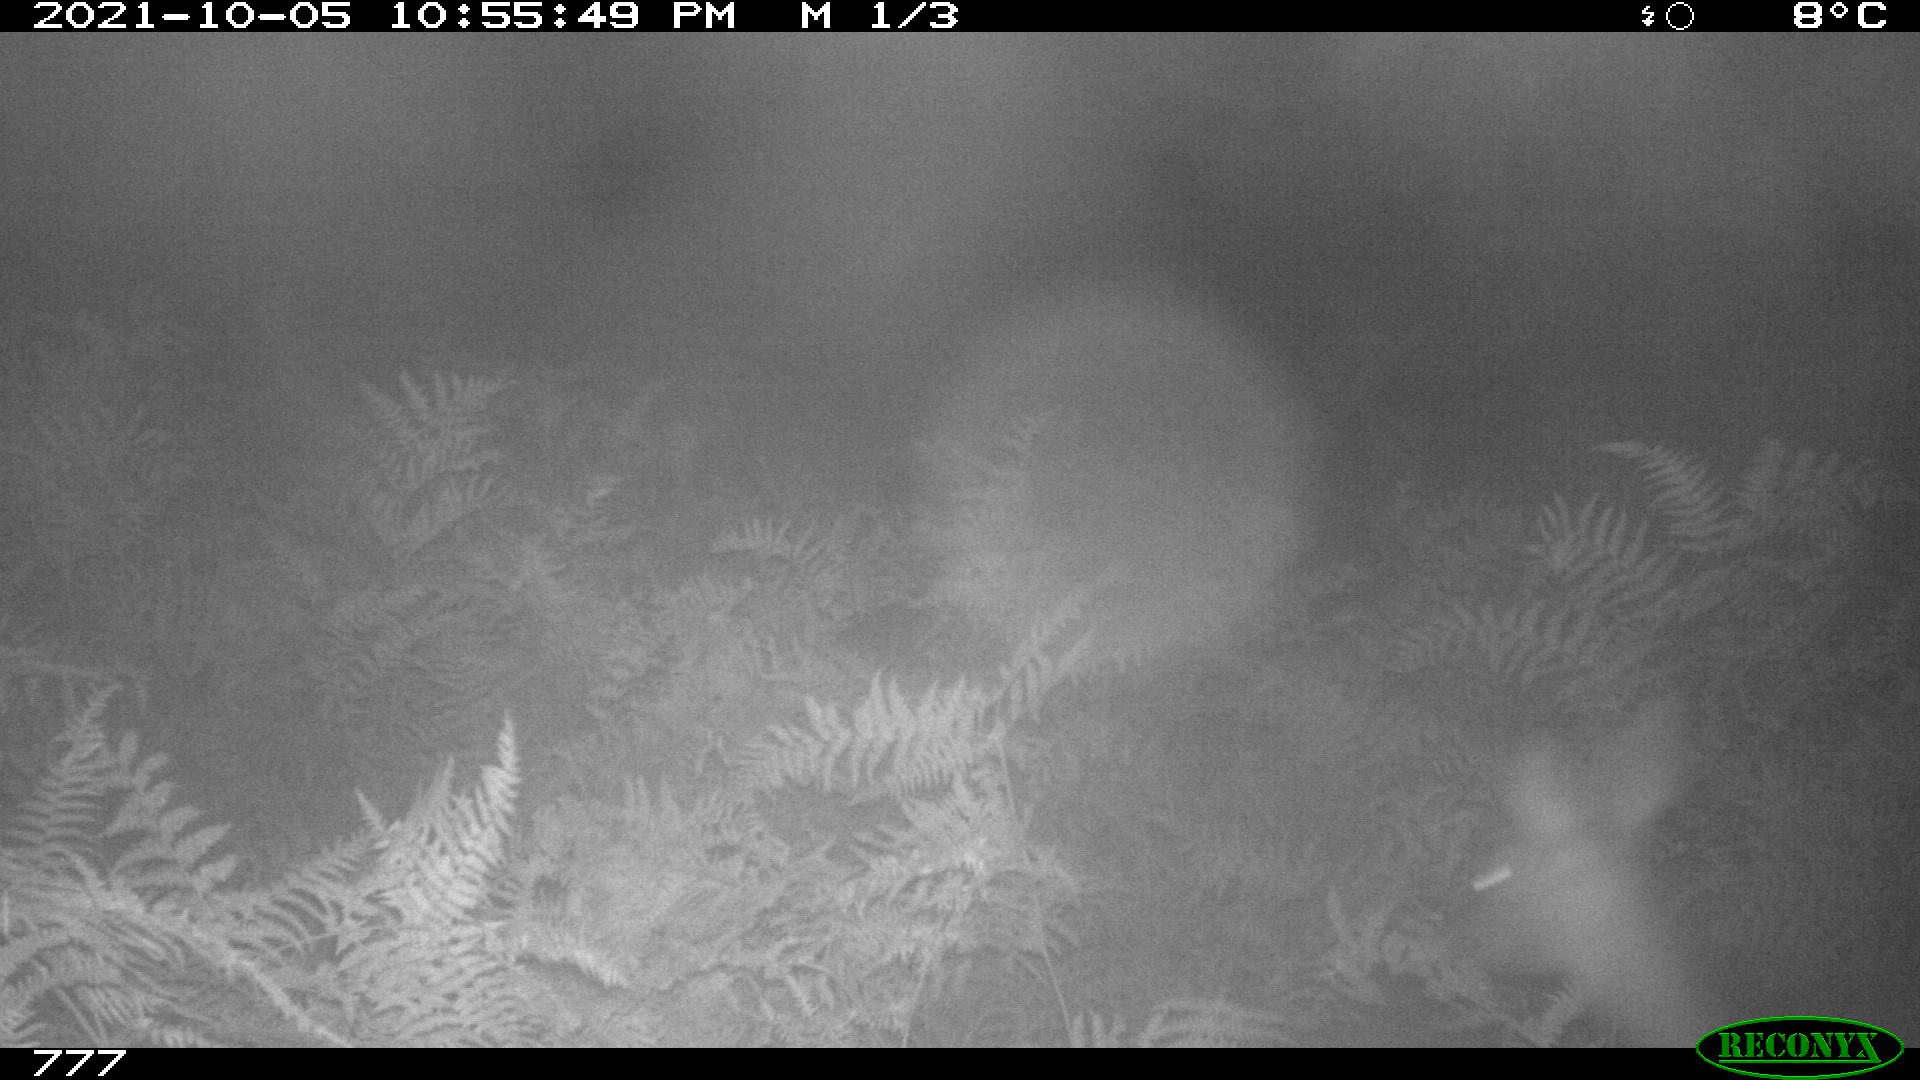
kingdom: Animalia
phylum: Chordata
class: Mammalia
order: Artiodactyla
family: Cervidae
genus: Capreolus
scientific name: Capreolus capreolus
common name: Western roe deer
